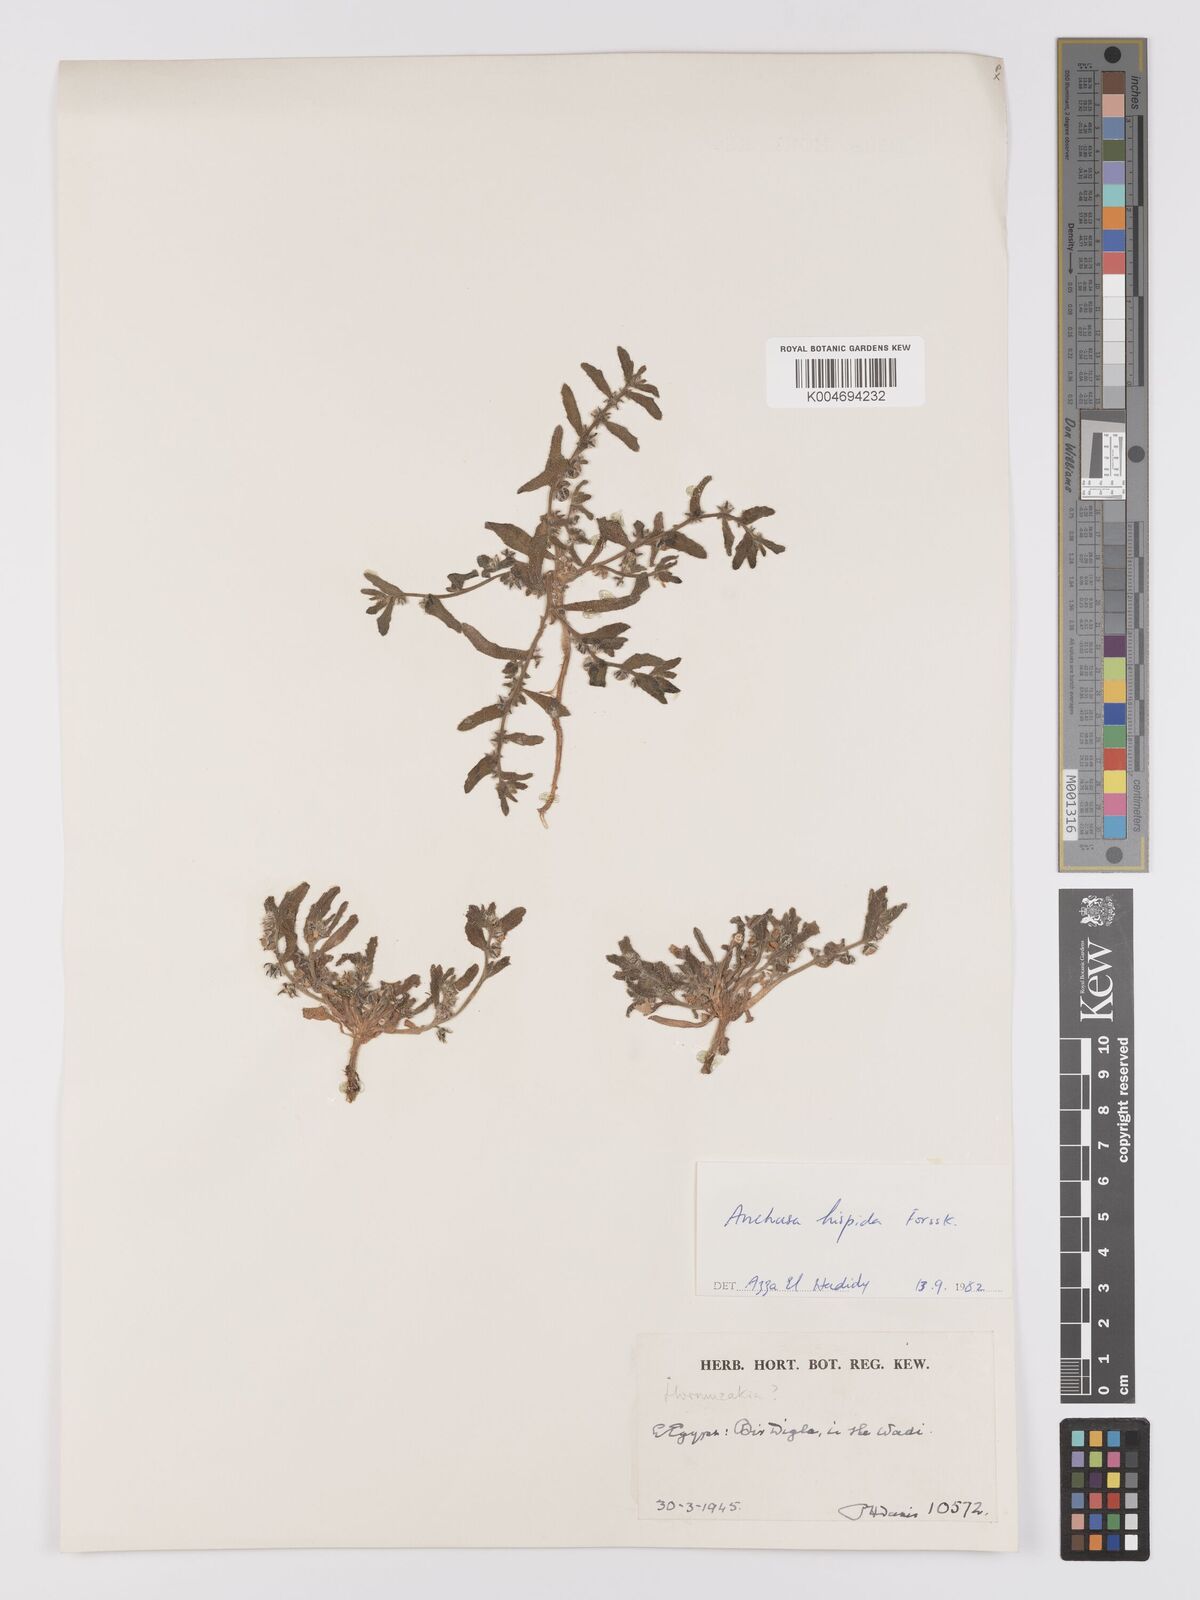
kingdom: Plantae
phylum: Tracheophyta
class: Magnoliopsida
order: Boraginales
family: Boraginaceae
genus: Gastrocotyle
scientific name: Gastrocotyle hispida
